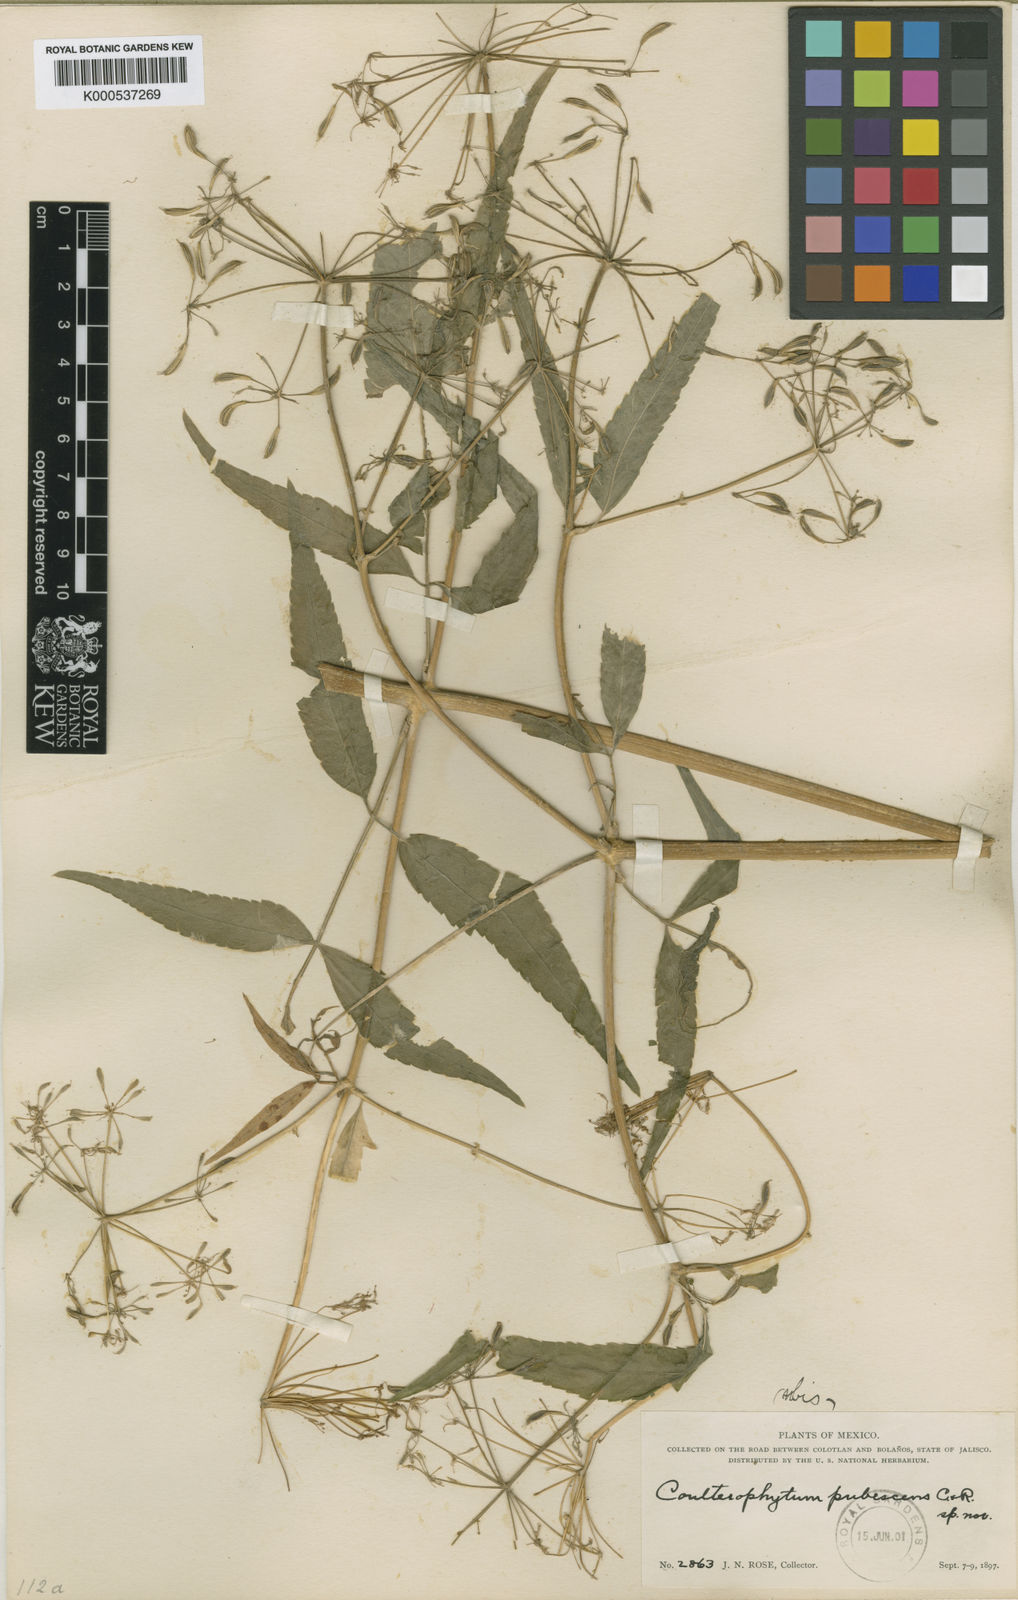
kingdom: Plantae
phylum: Tracheophyta
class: Magnoliopsida
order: Apiales
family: Apiaceae
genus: Coulterophytum
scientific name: Coulterophytum macrophyllum
